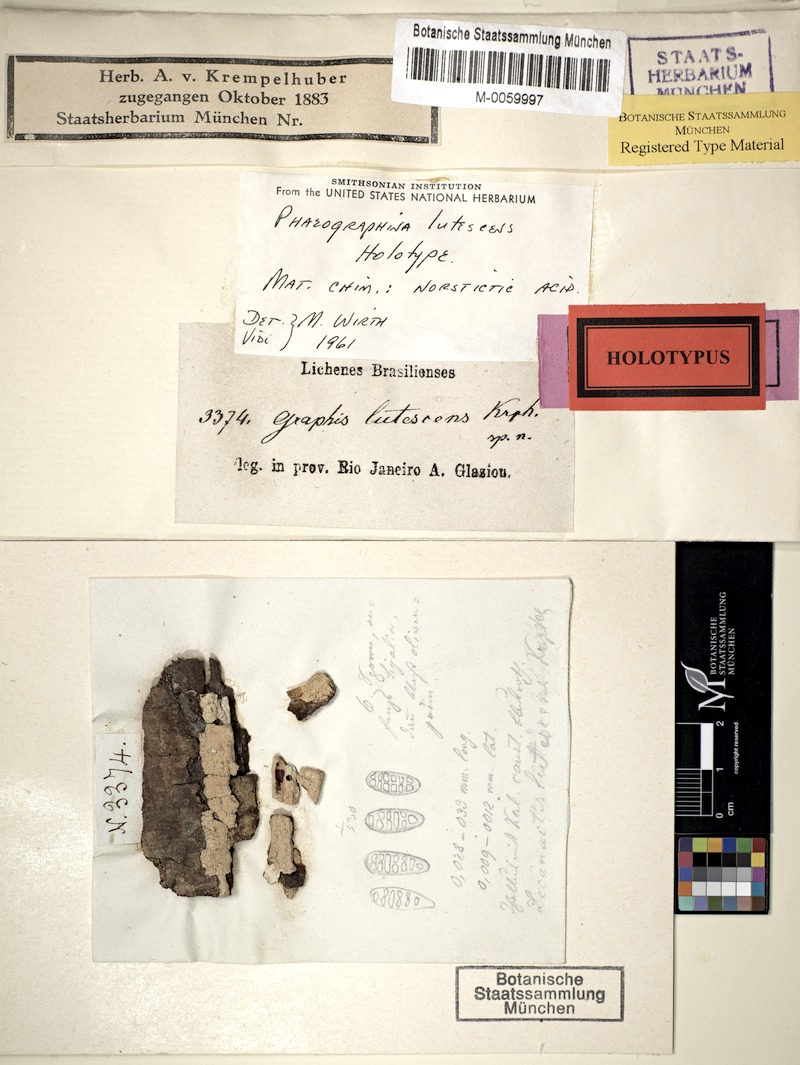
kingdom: Fungi
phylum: Ascomycota
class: Lecanoromycetes
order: Ostropales
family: Graphidaceae
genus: Phaeographina
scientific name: Phaeographina
